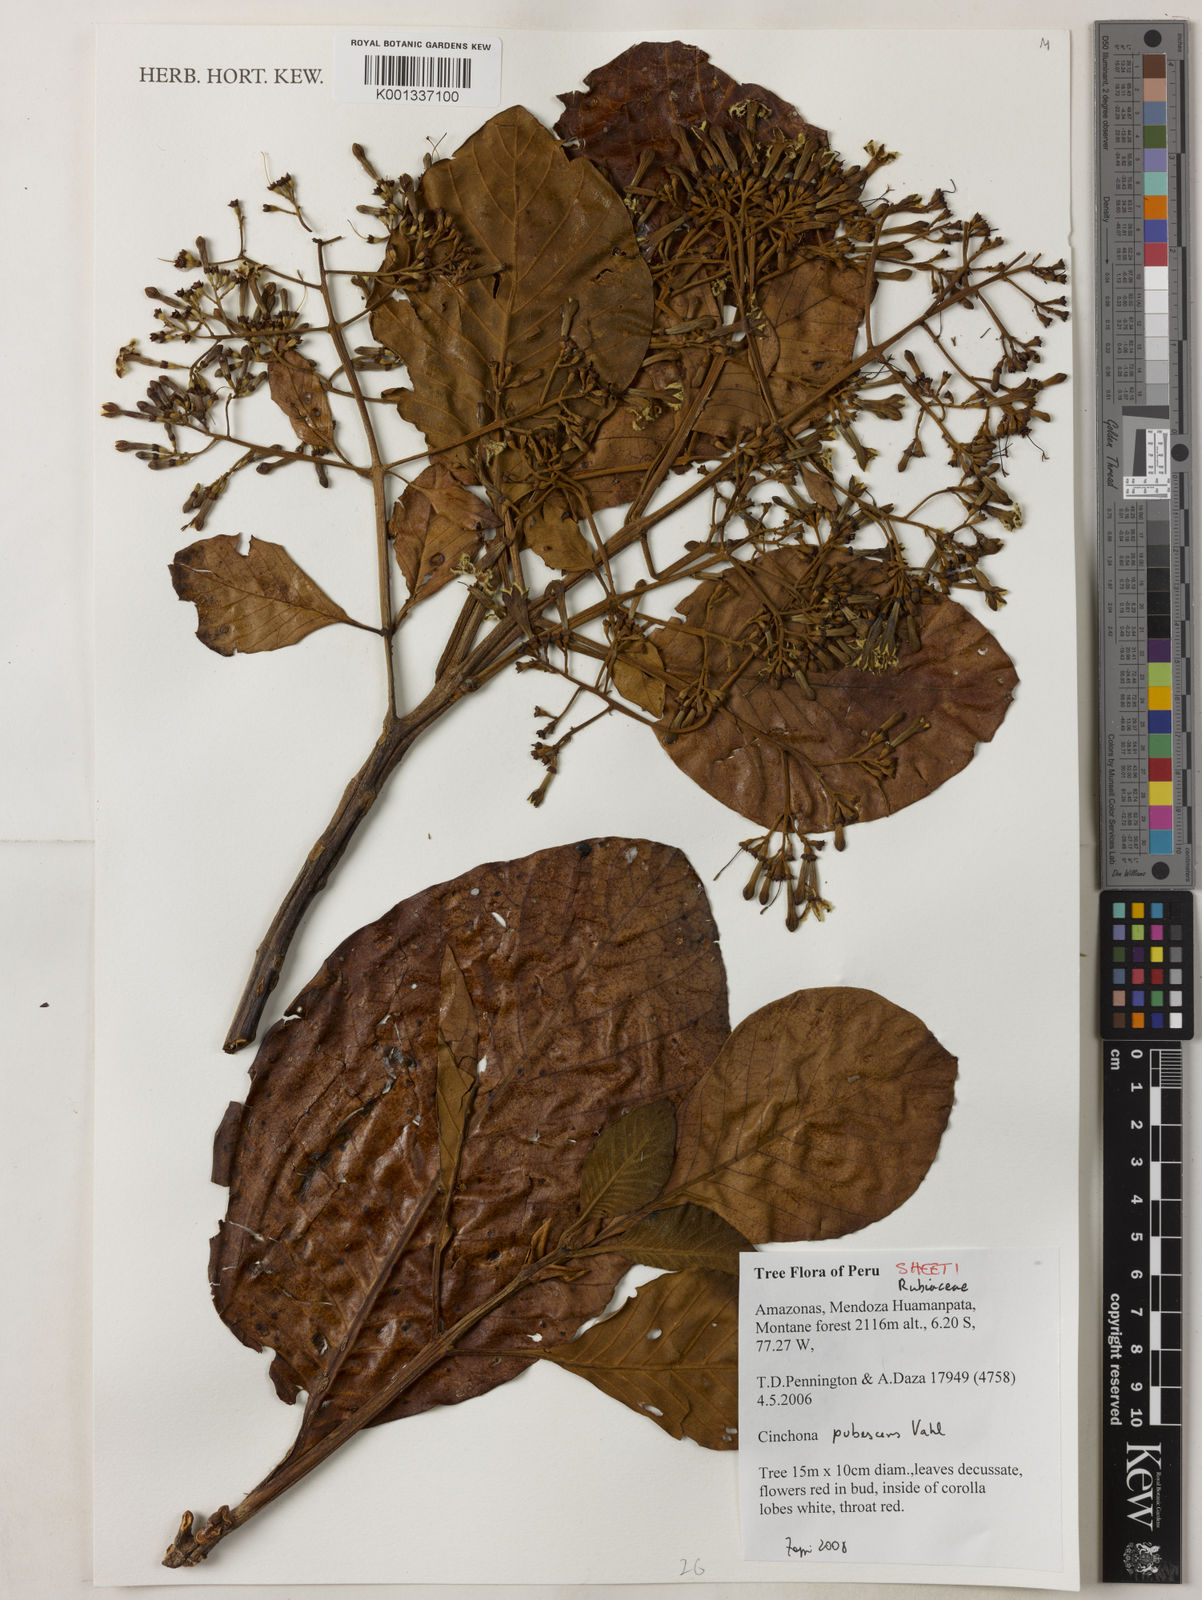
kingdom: Plantae
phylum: Tracheophyta
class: Magnoliopsida
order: Gentianales
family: Rubiaceae
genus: Cinchona
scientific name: Cinchona pubescens
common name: Quinine
